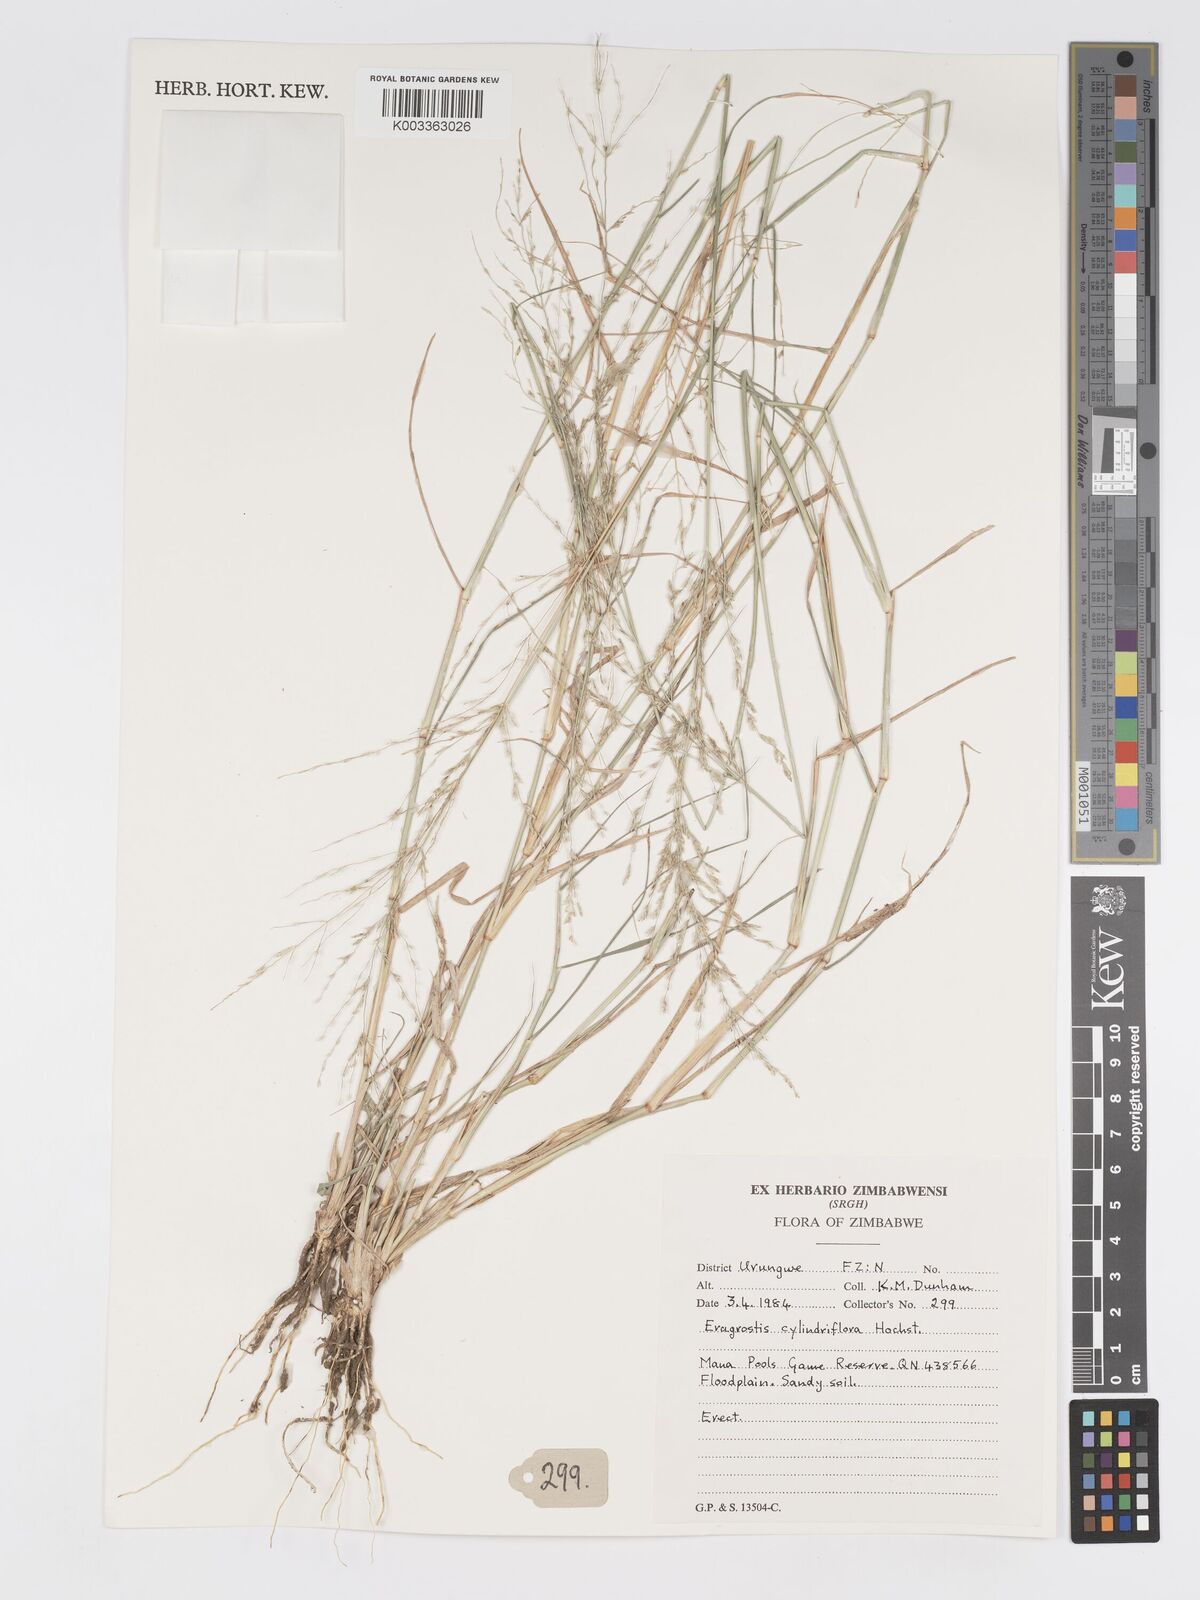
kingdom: Plantae
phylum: Tracheophyta
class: Liliopsida
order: Poales
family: Poaceae
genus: Eragrostis
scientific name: Eragrostis cylindriflora
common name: Cylinderflower lovegrass
